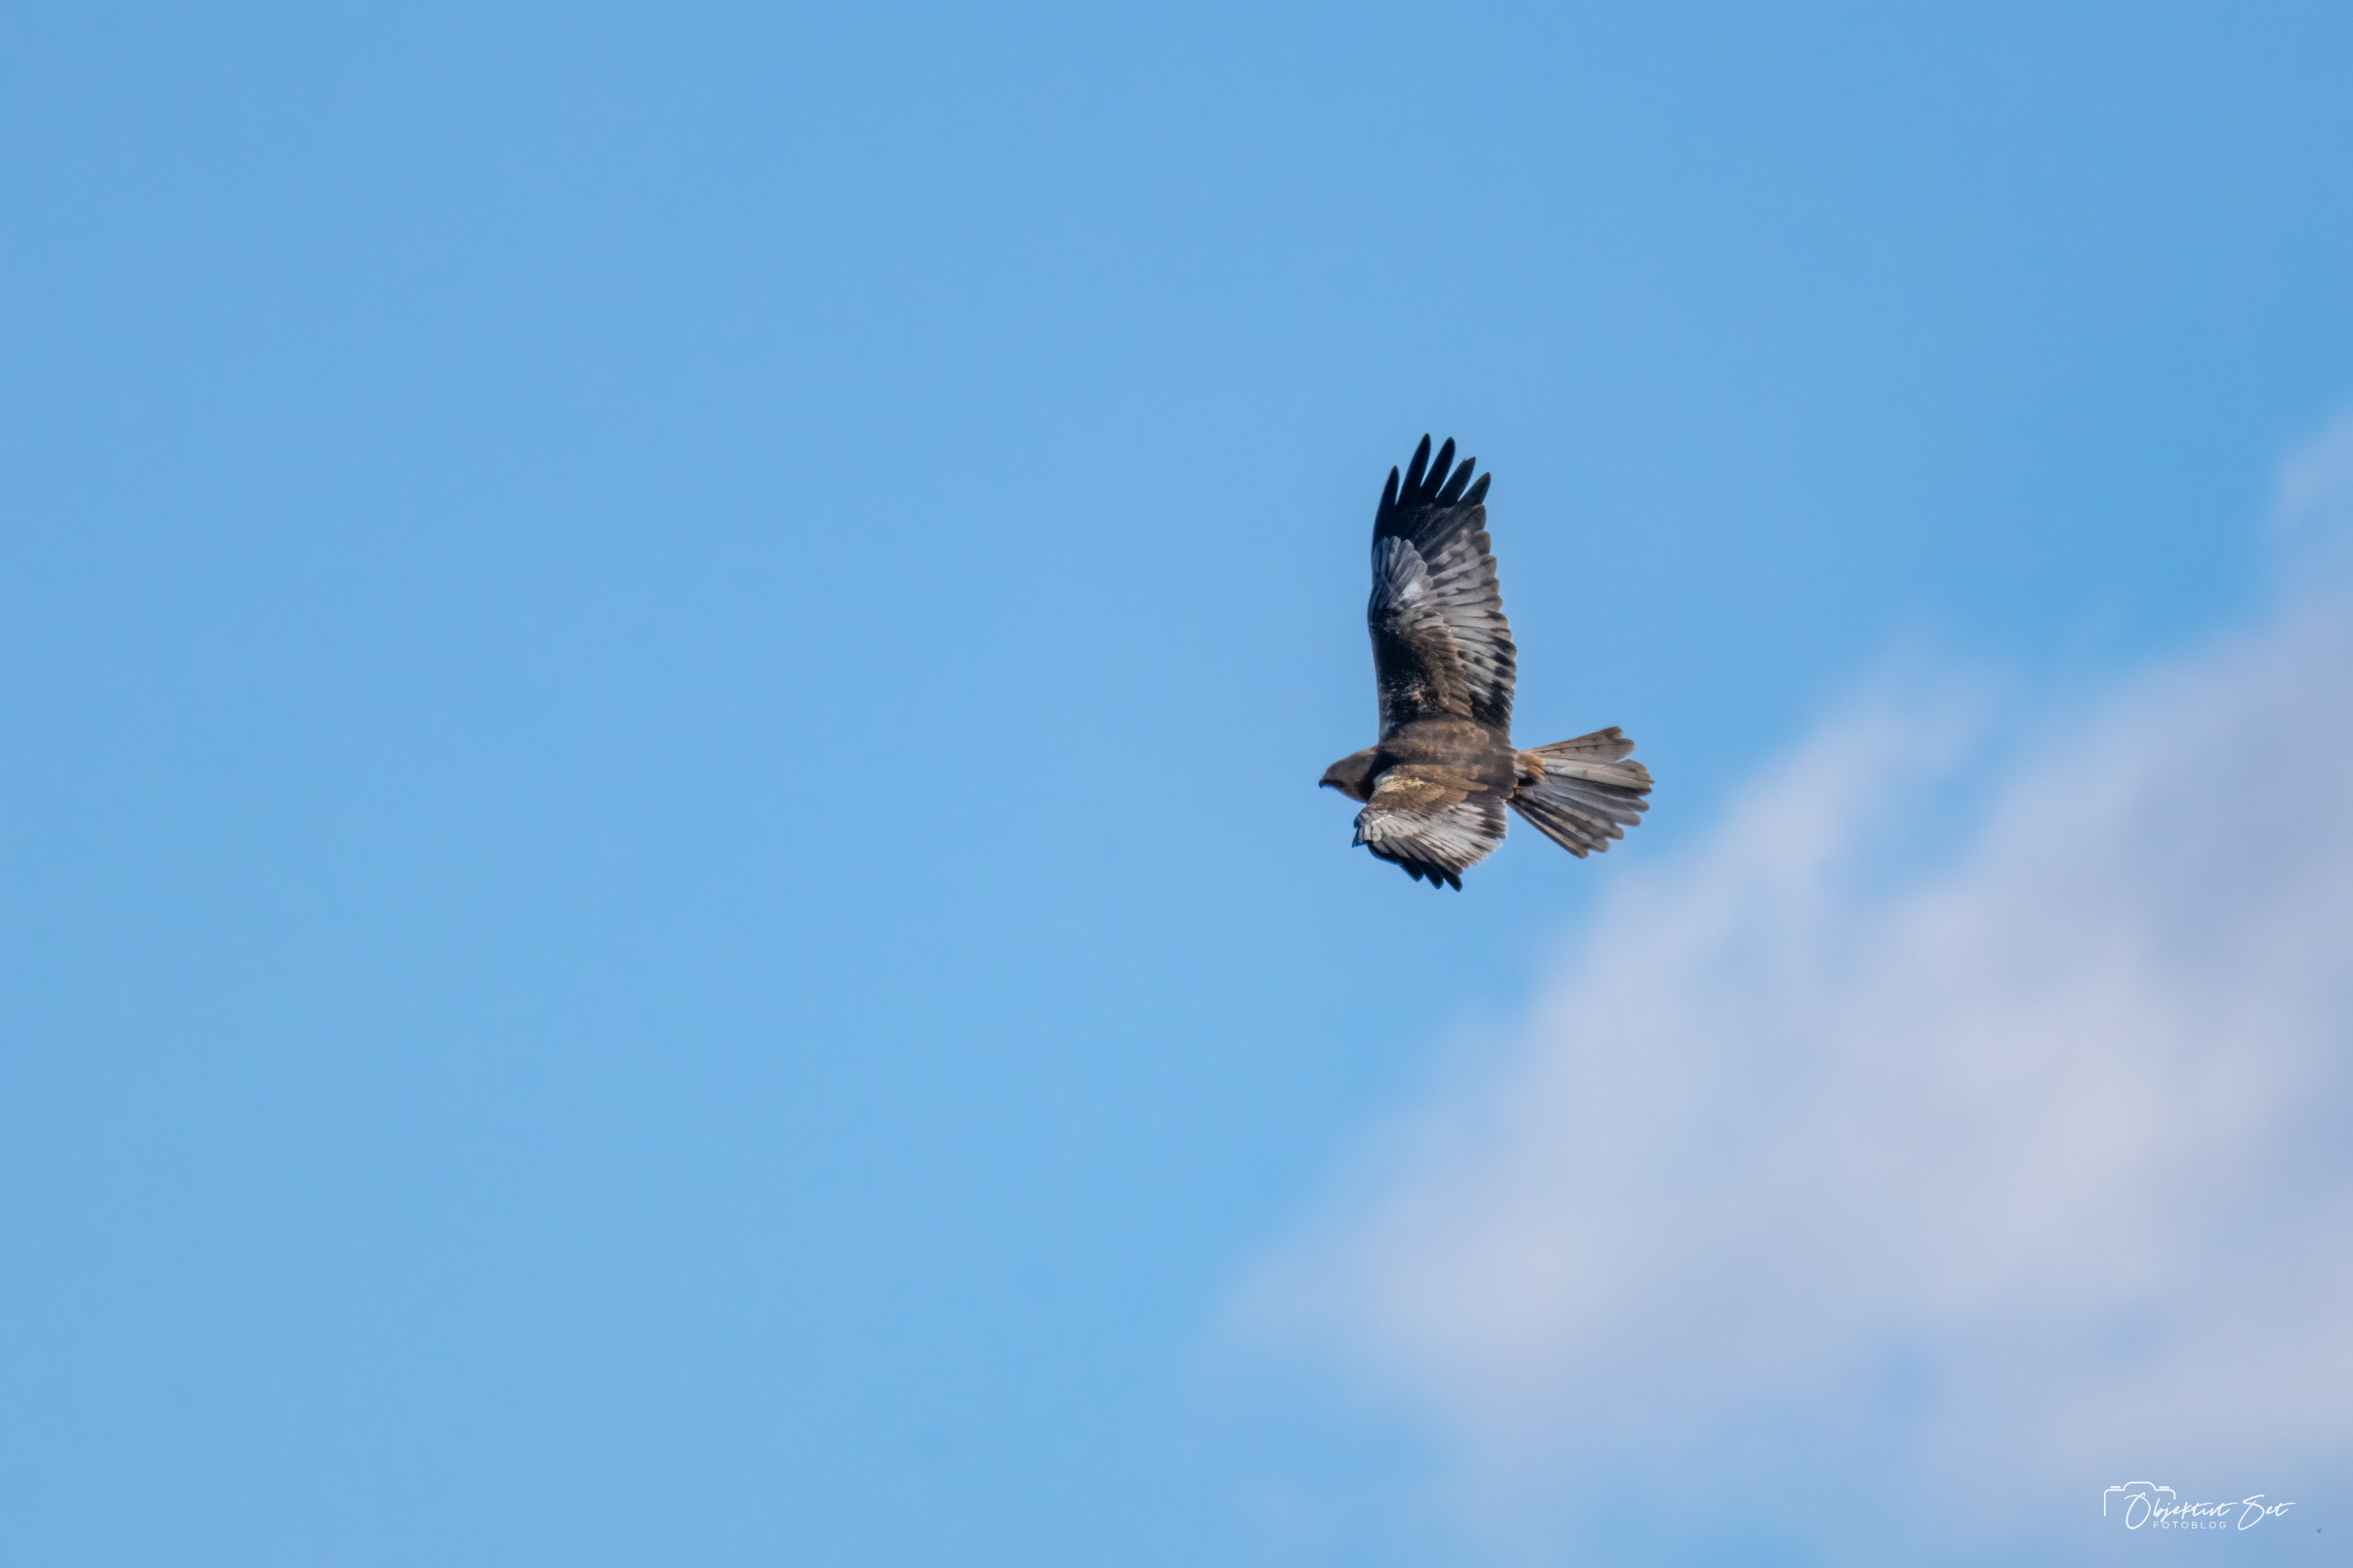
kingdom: Animalia
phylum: Chordata
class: Aves
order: Accipitriformes
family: Accipitridae
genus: Circus
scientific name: Circus aeruginosus
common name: Rørhøg
